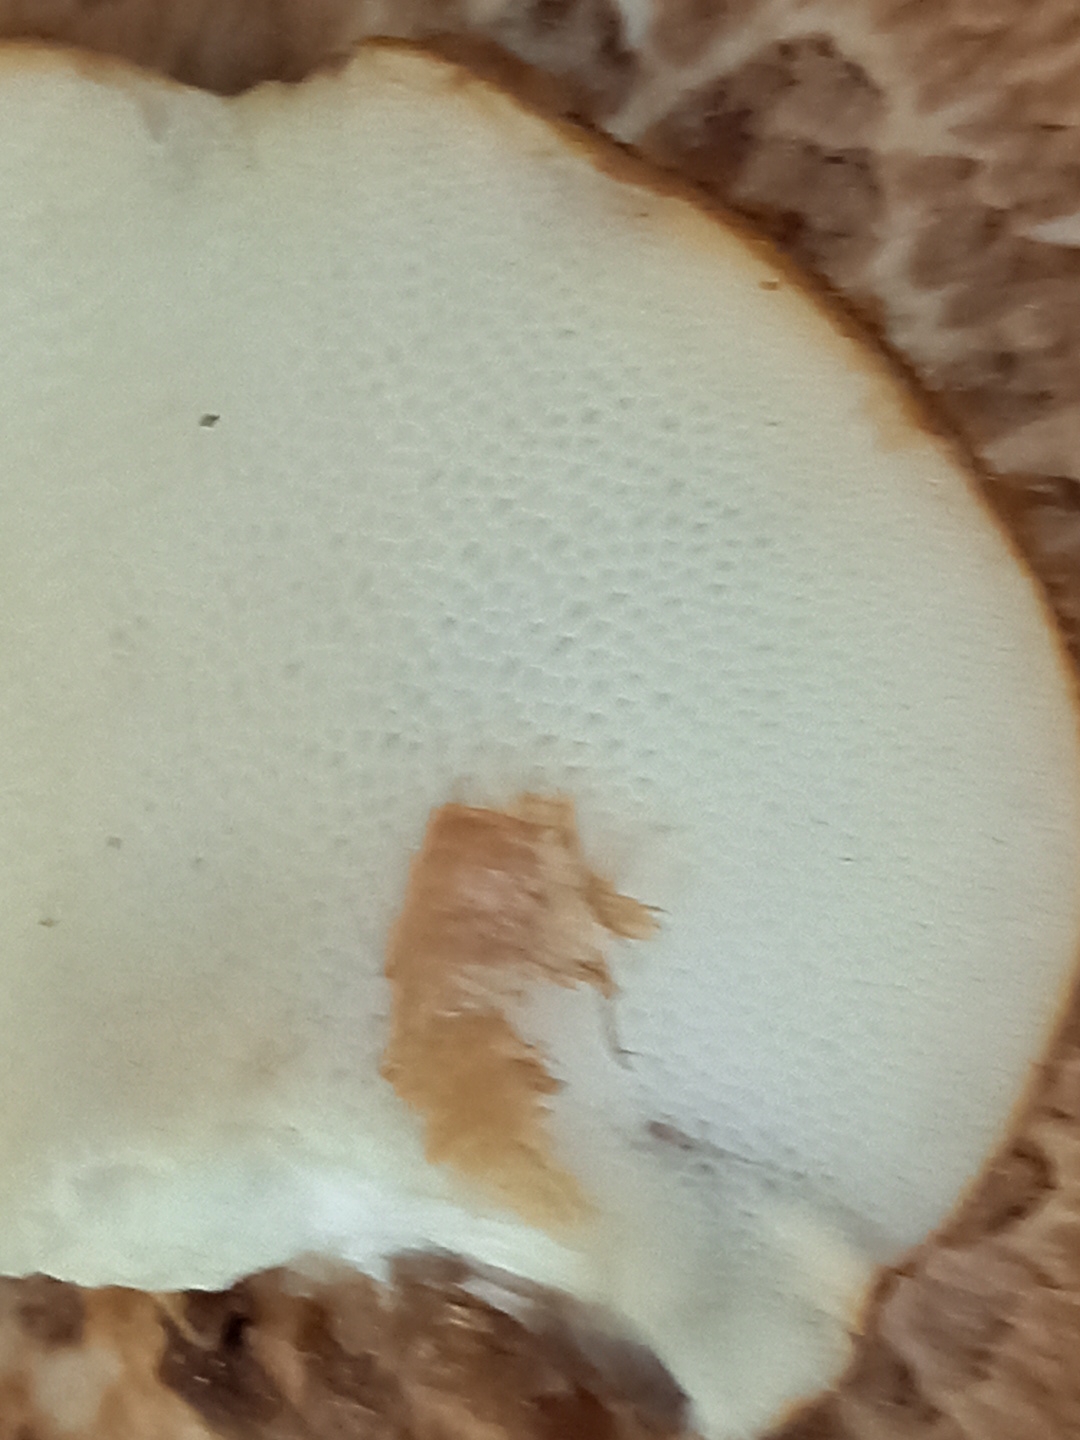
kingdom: Fungi
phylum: Basidiomycota
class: Agaricomycetes
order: Polyporales
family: Polyporaceae
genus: Cerioporus
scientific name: Cerioporus squamosus
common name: skællet stilkporesvamp
